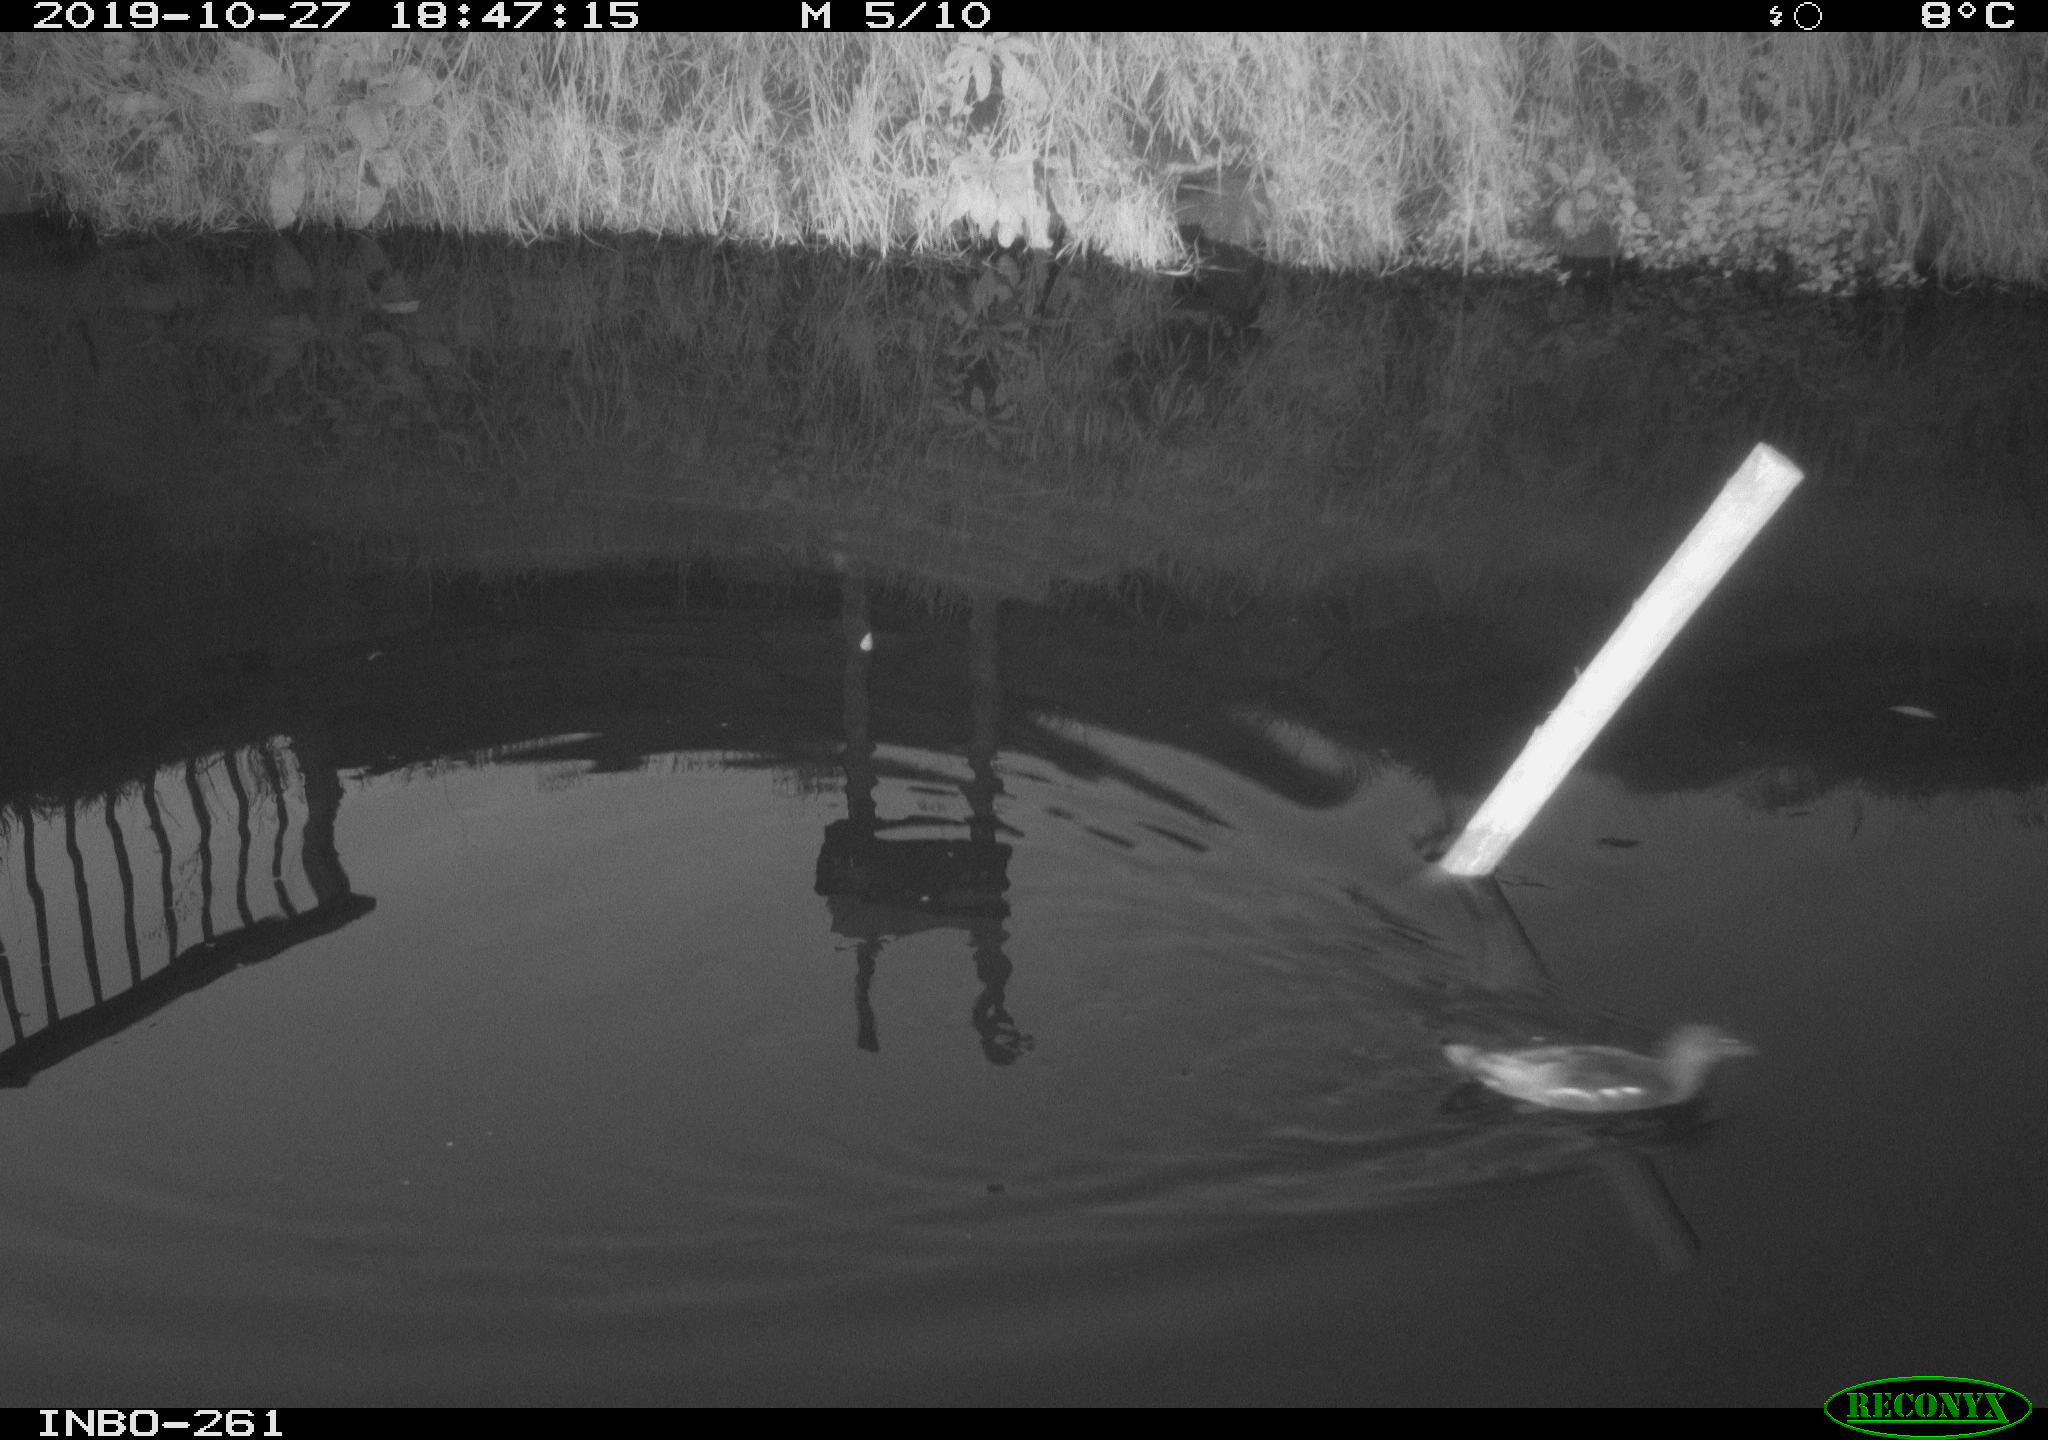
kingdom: Animalia
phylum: Chordata
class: Aves
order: Gruiformes
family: Rallidae
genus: Gallinula
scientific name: Gallinula chloropus
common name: Common moorhen
